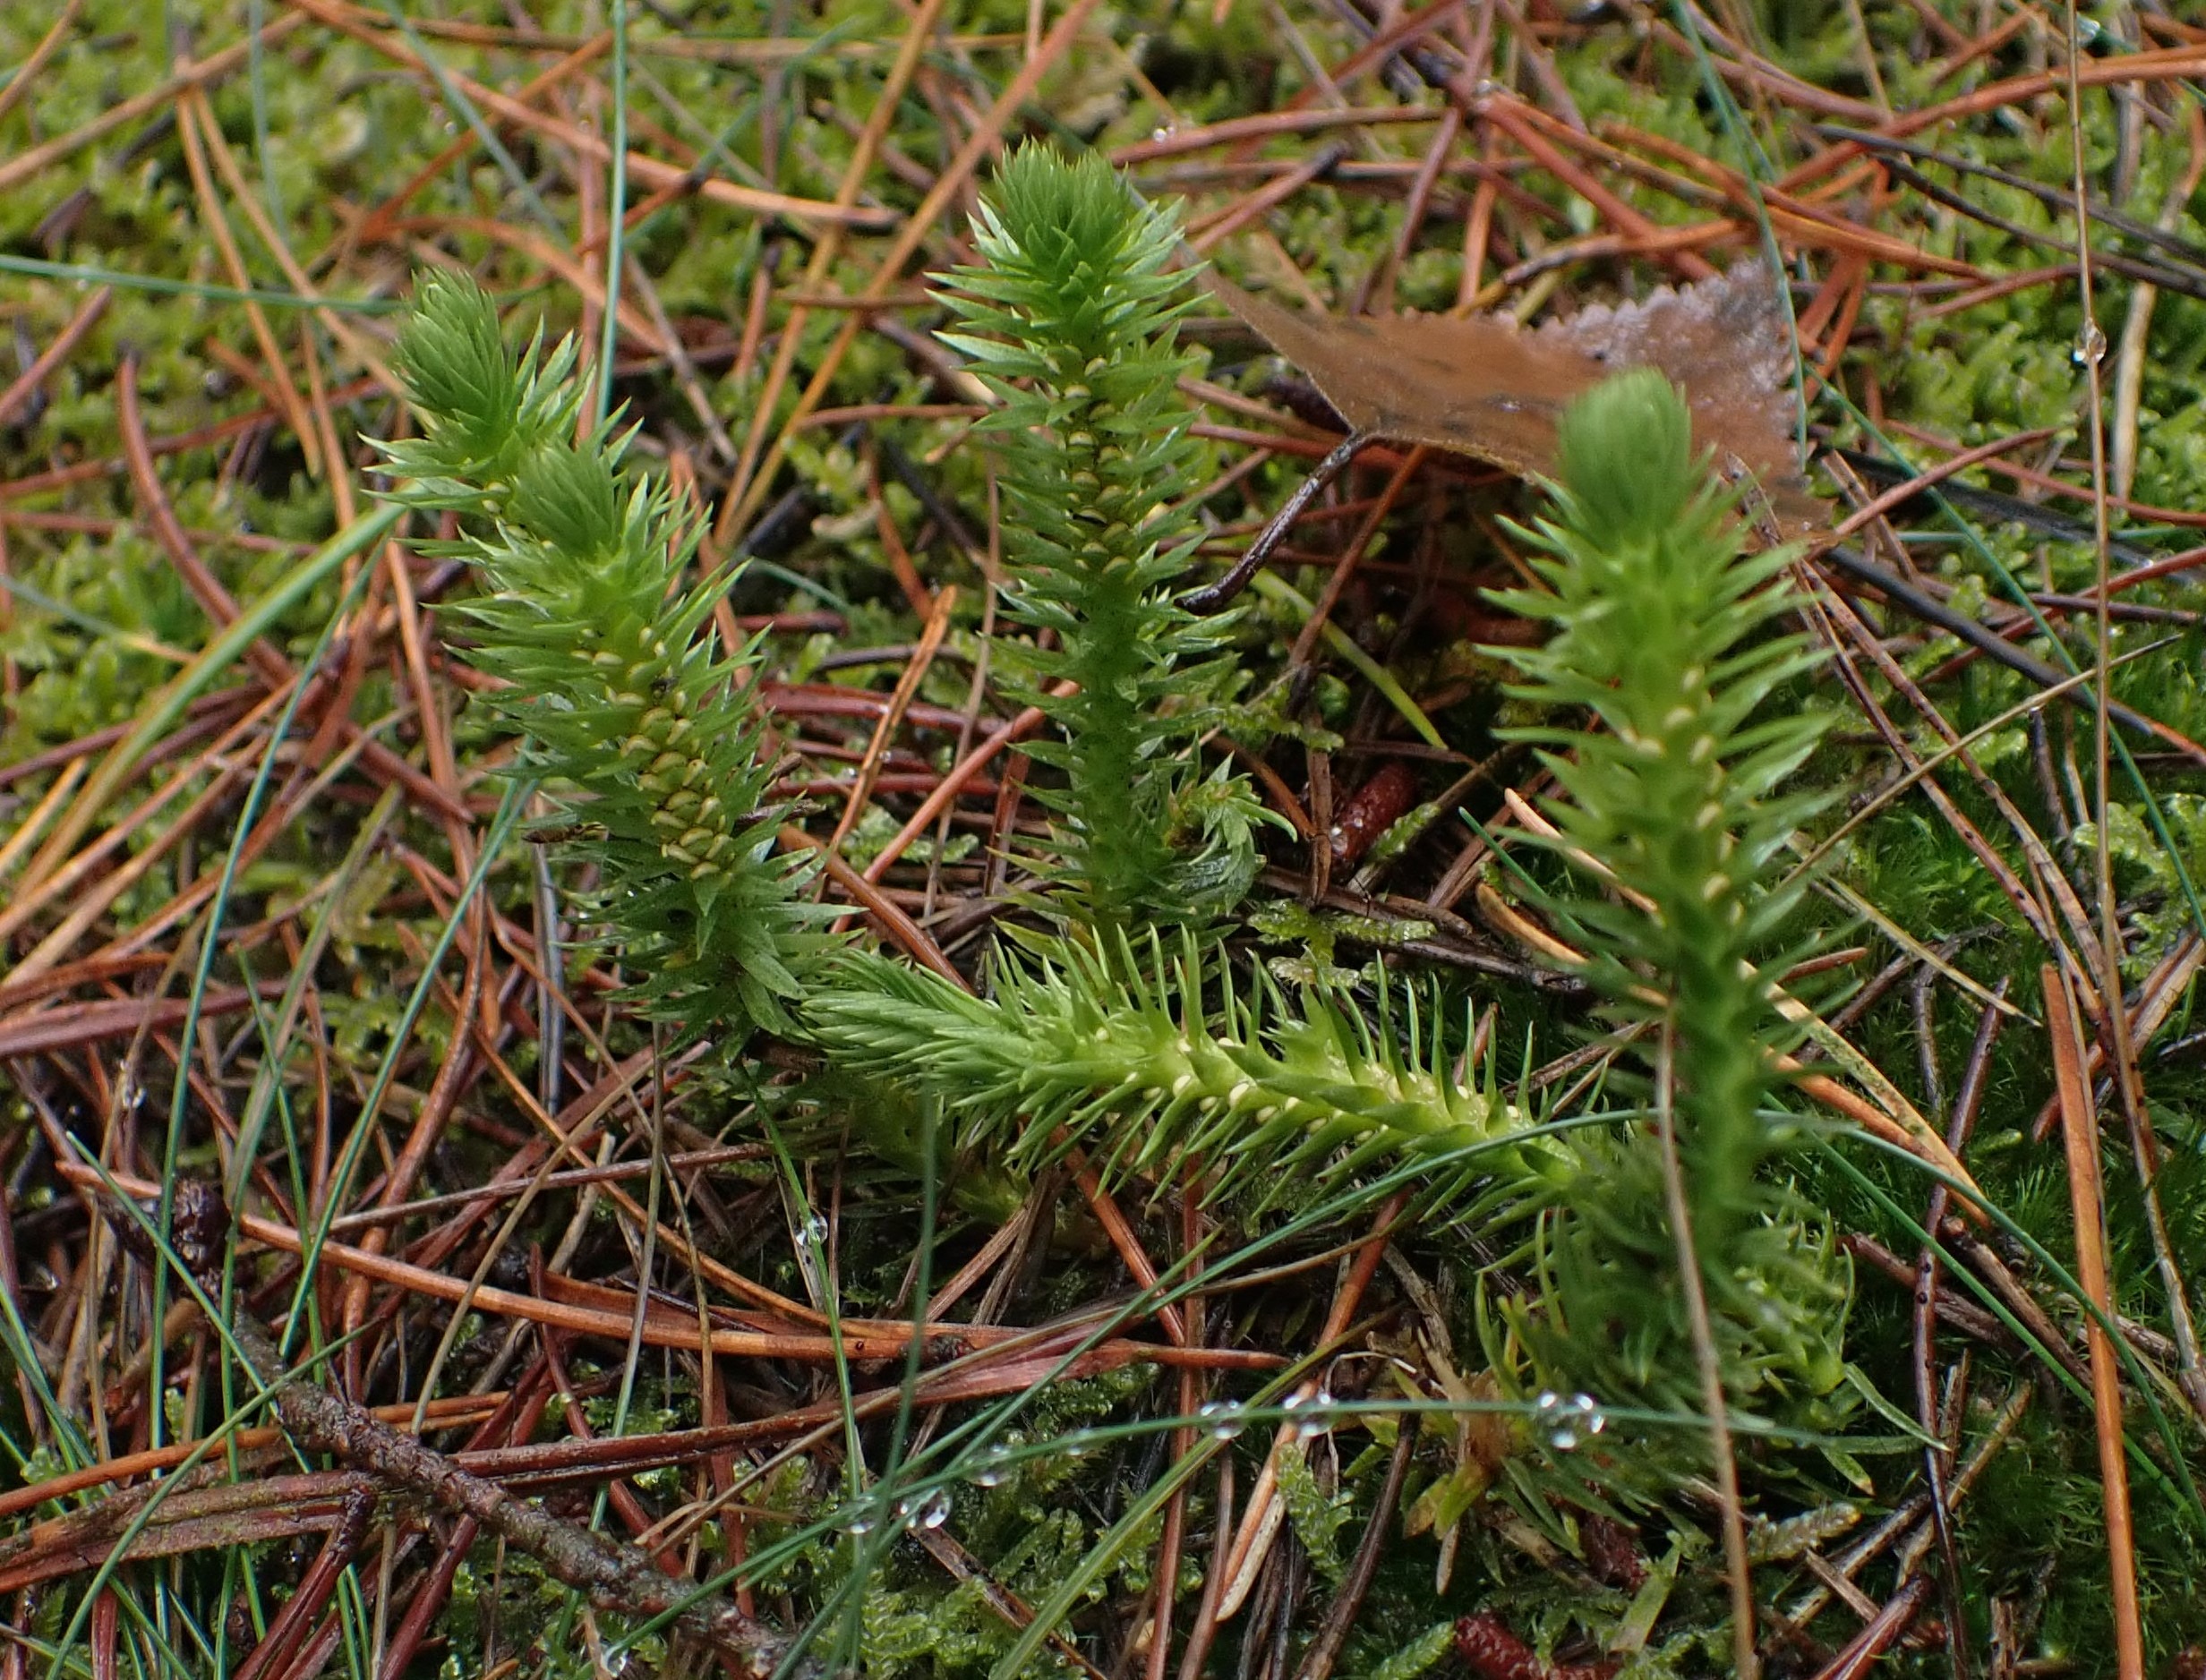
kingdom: Plantae
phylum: Tracheophyta
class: Lycopodiopsida
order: Lycopodiales
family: Lycopodiaceae
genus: Huperzia
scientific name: Huperzia selago
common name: Otteradet ulvefod
